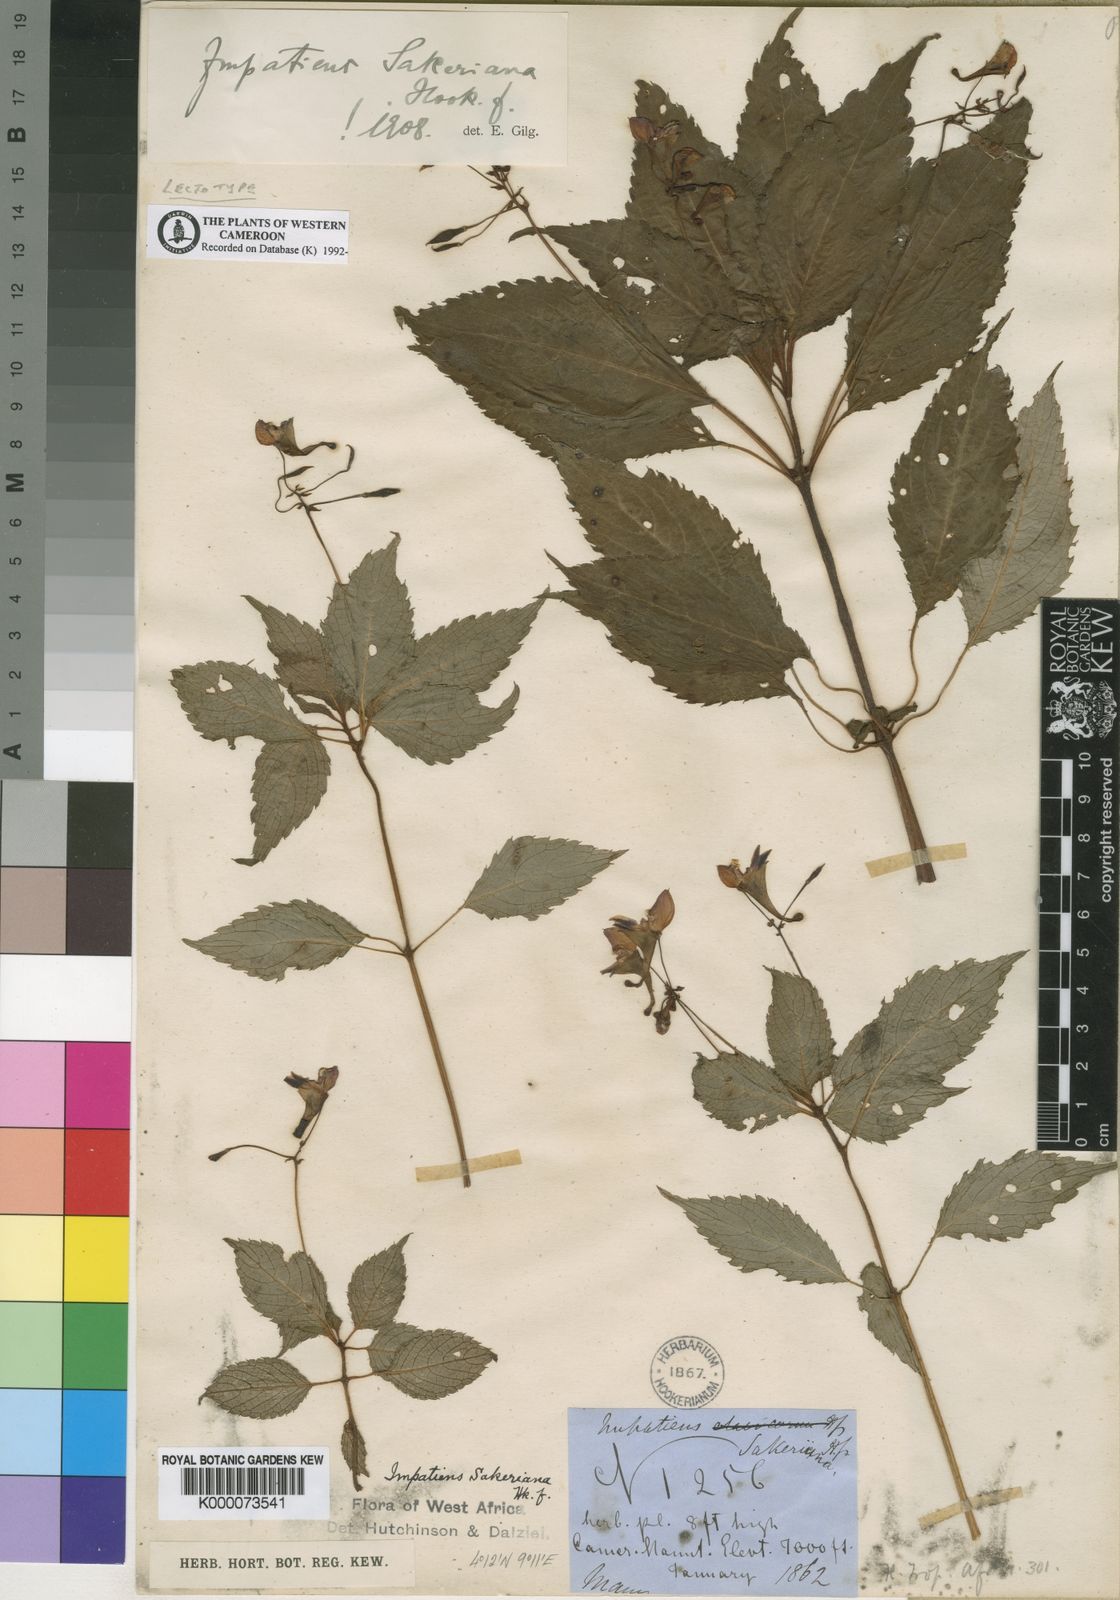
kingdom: Plantae
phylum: Tracheophyta
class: Magnoliopsida
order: Ericales
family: Balsaminaceae
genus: Impatiens
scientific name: Impatiens sakeriana
